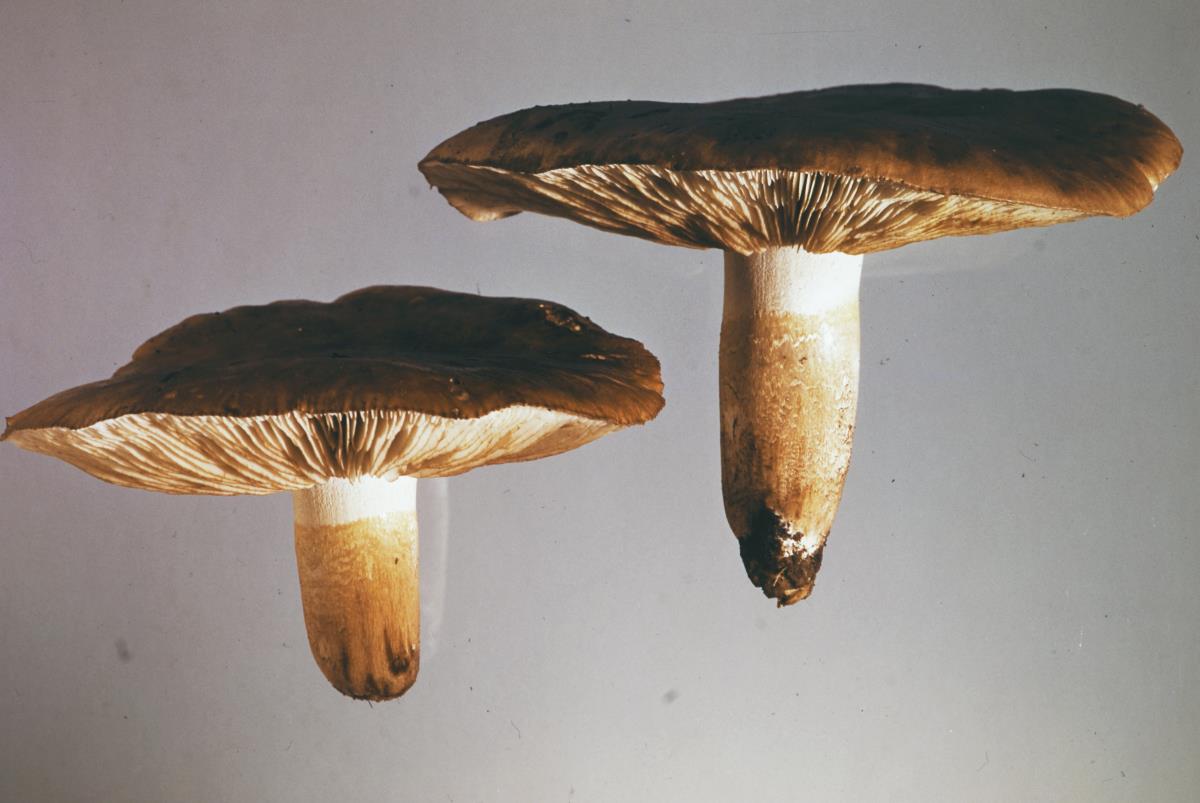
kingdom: Fungi
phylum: Basidiomycota
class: Agaricomycetes
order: Agaricales
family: Tricholomataceae
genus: Tricholoma
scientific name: Tricholoma albobrunneum
